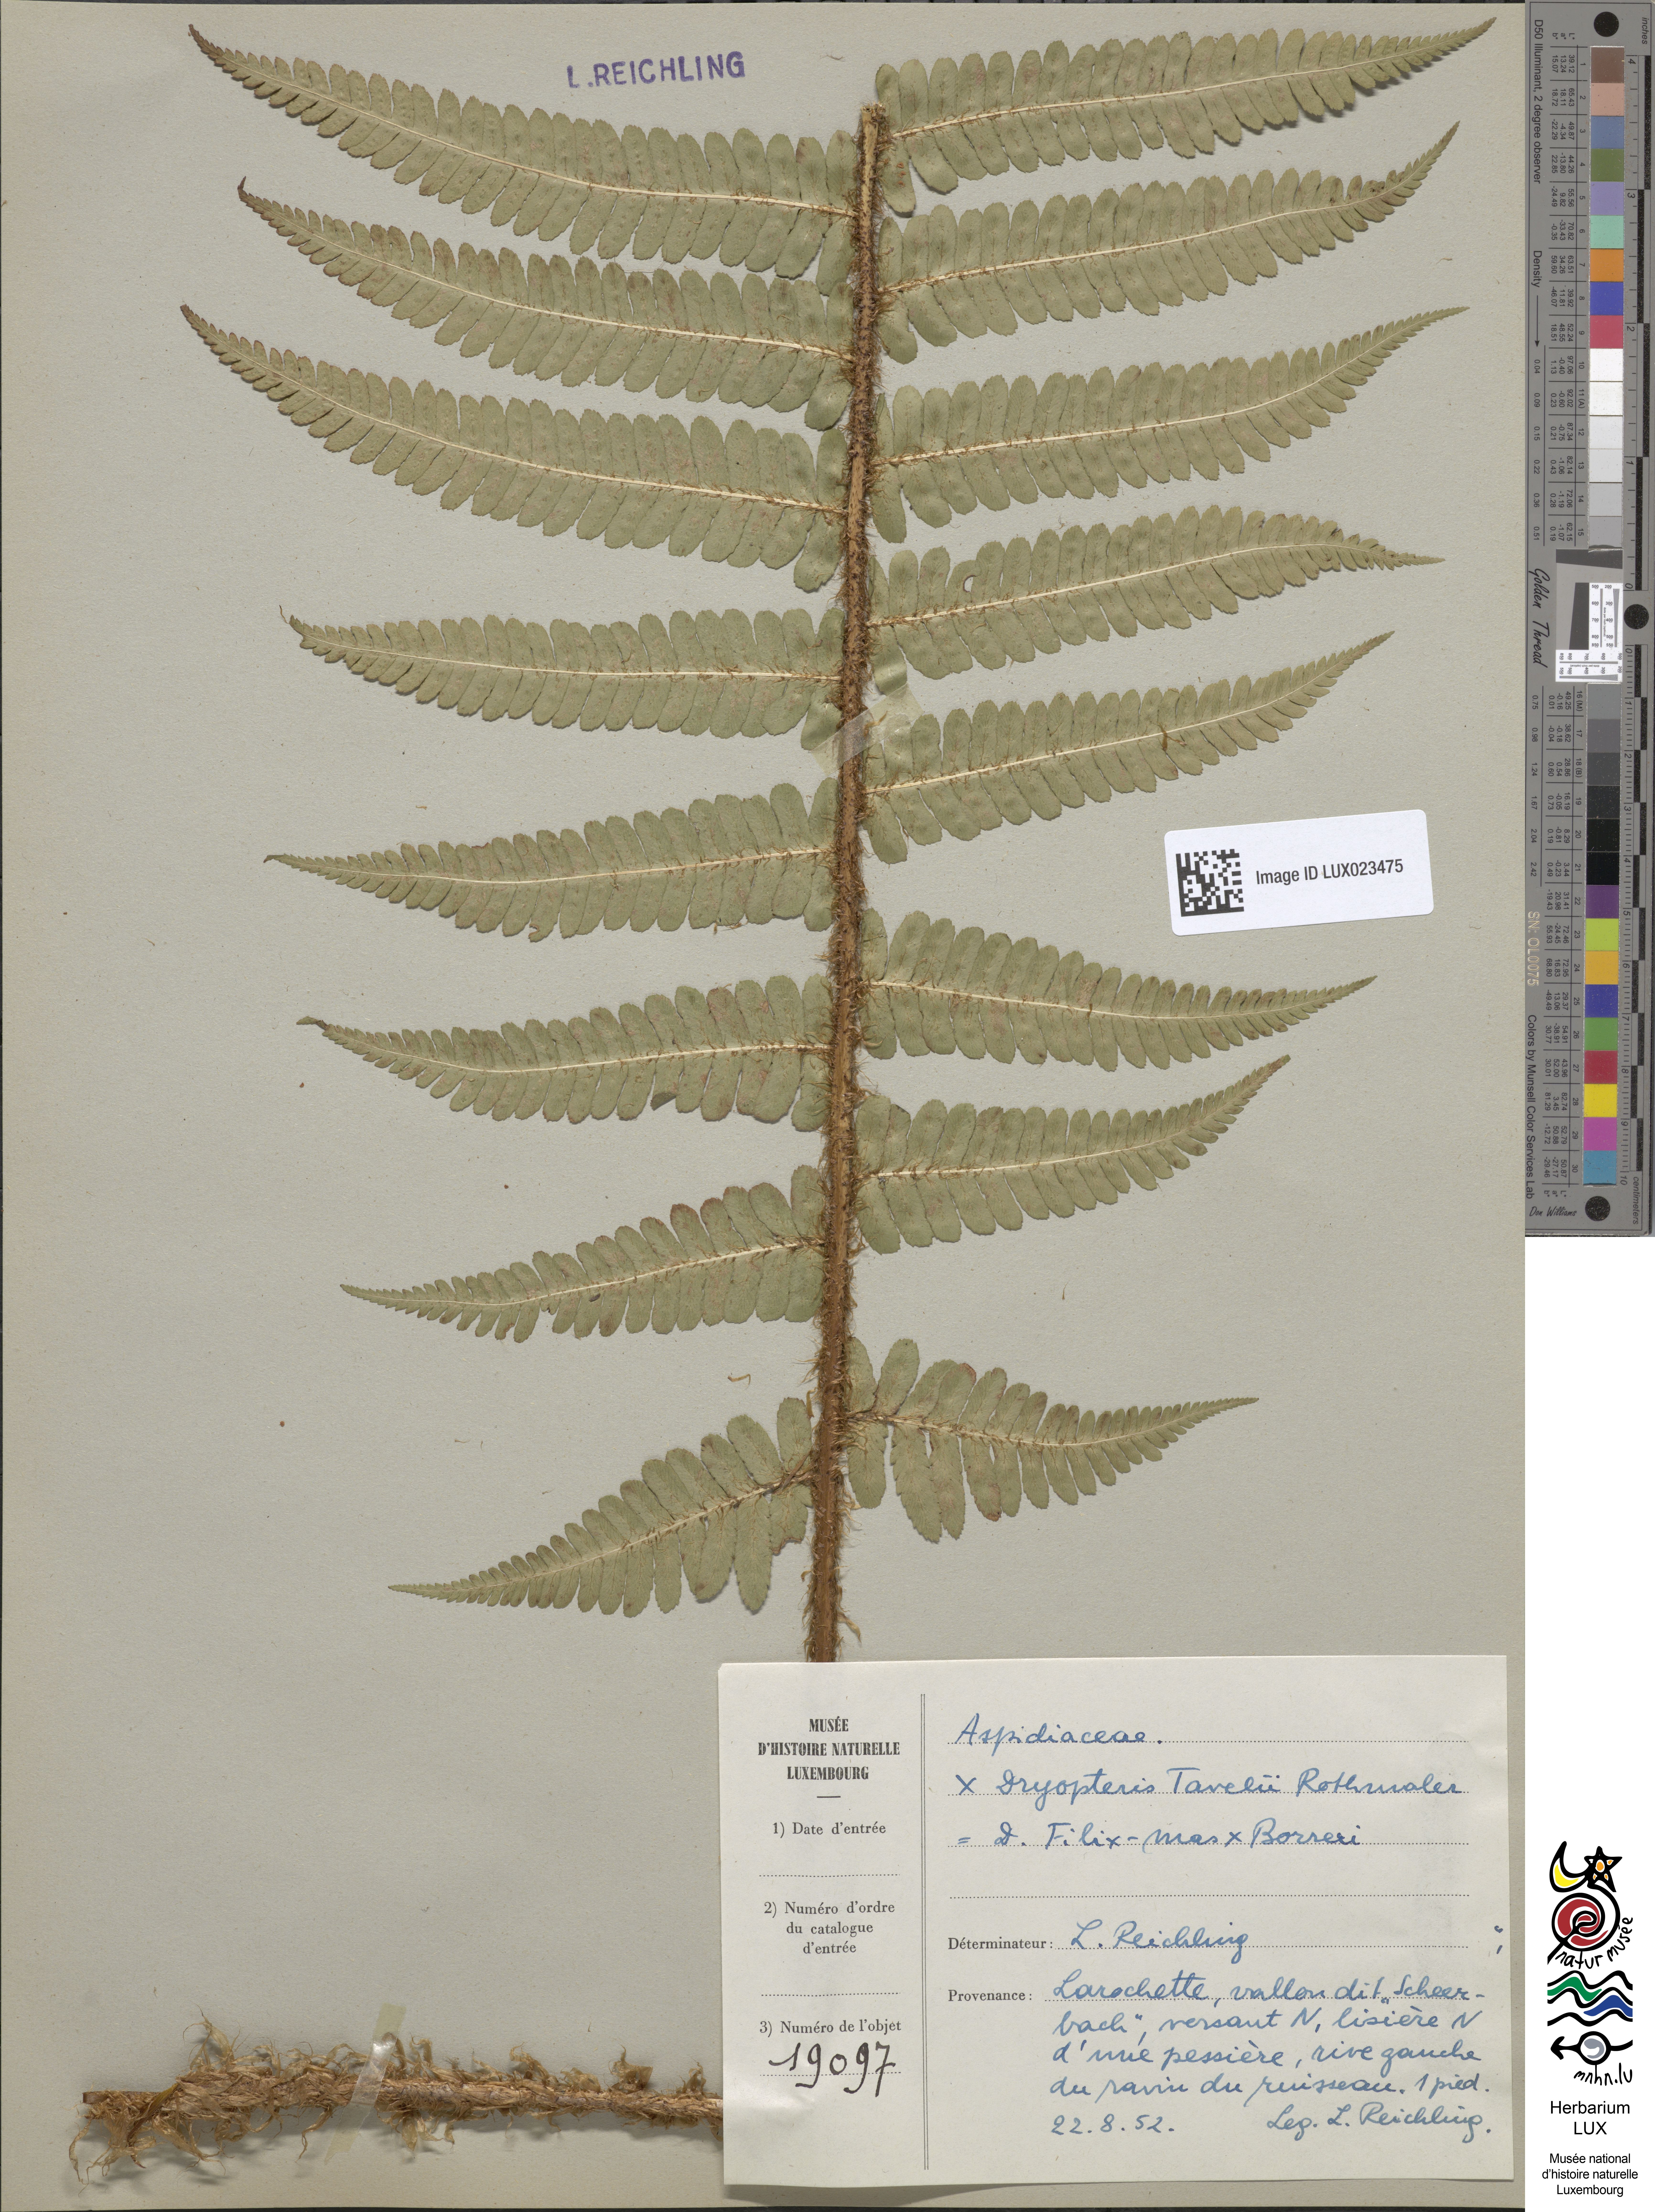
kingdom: Plantae
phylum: Tracheophyta
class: Polypodiopsida
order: Polypodiales
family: Dryopteridaceae
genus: Dryopteris
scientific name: Dryopteris borreri
